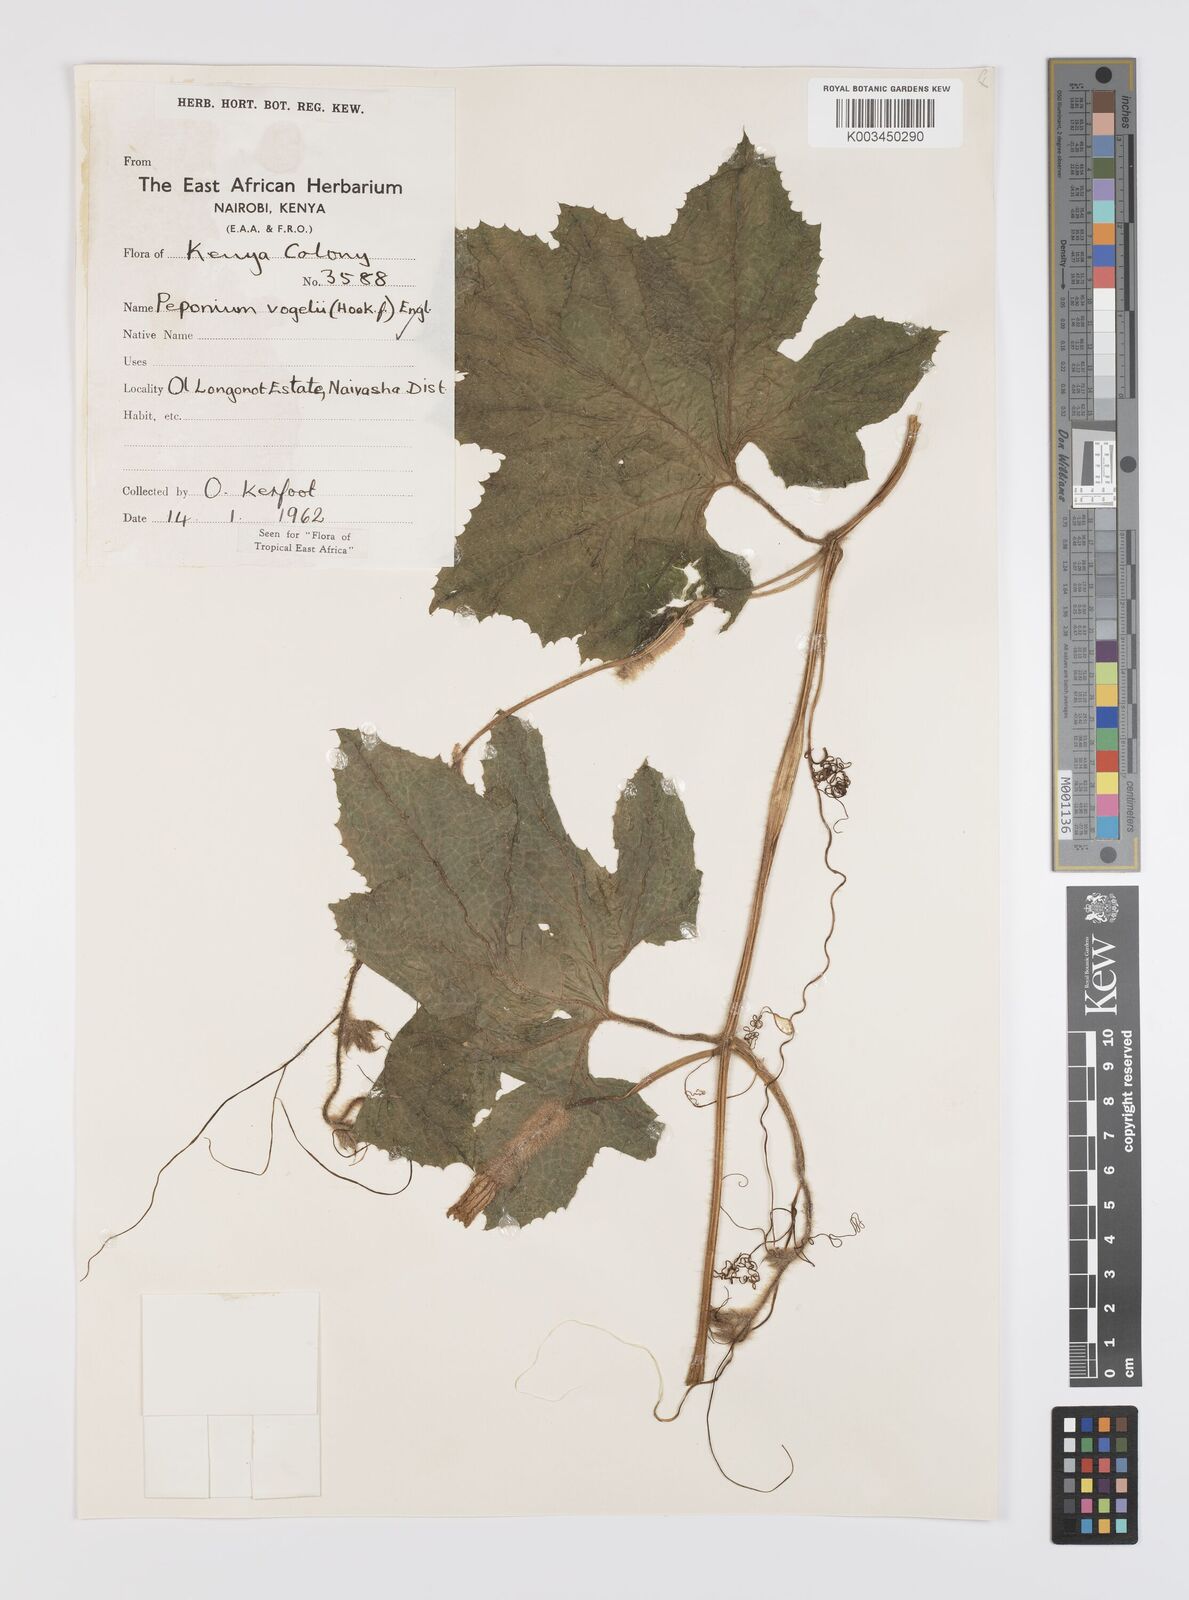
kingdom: Plantae
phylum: Tracheophyta
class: Magnoliopsida
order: Cucurbitales
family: Cucurbitaceae
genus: Peponium
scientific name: Peponium vogelii
